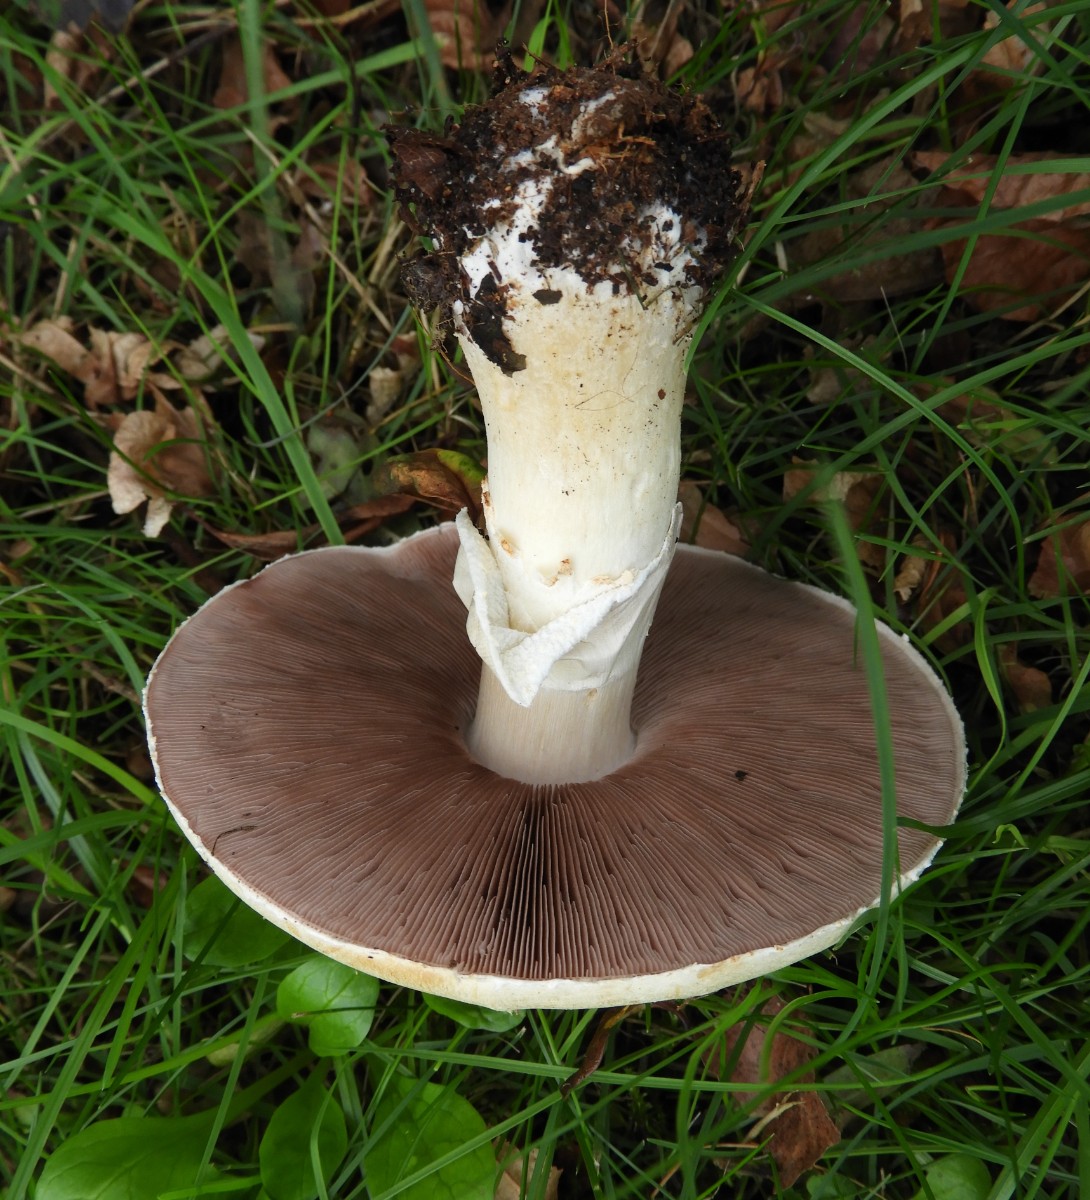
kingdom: Fungi
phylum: Basidiomycota
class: Agaricomycetes
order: Agaricales
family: Agaricaceae
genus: Agaricus
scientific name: Agaricus arvensis
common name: ager-champignon
